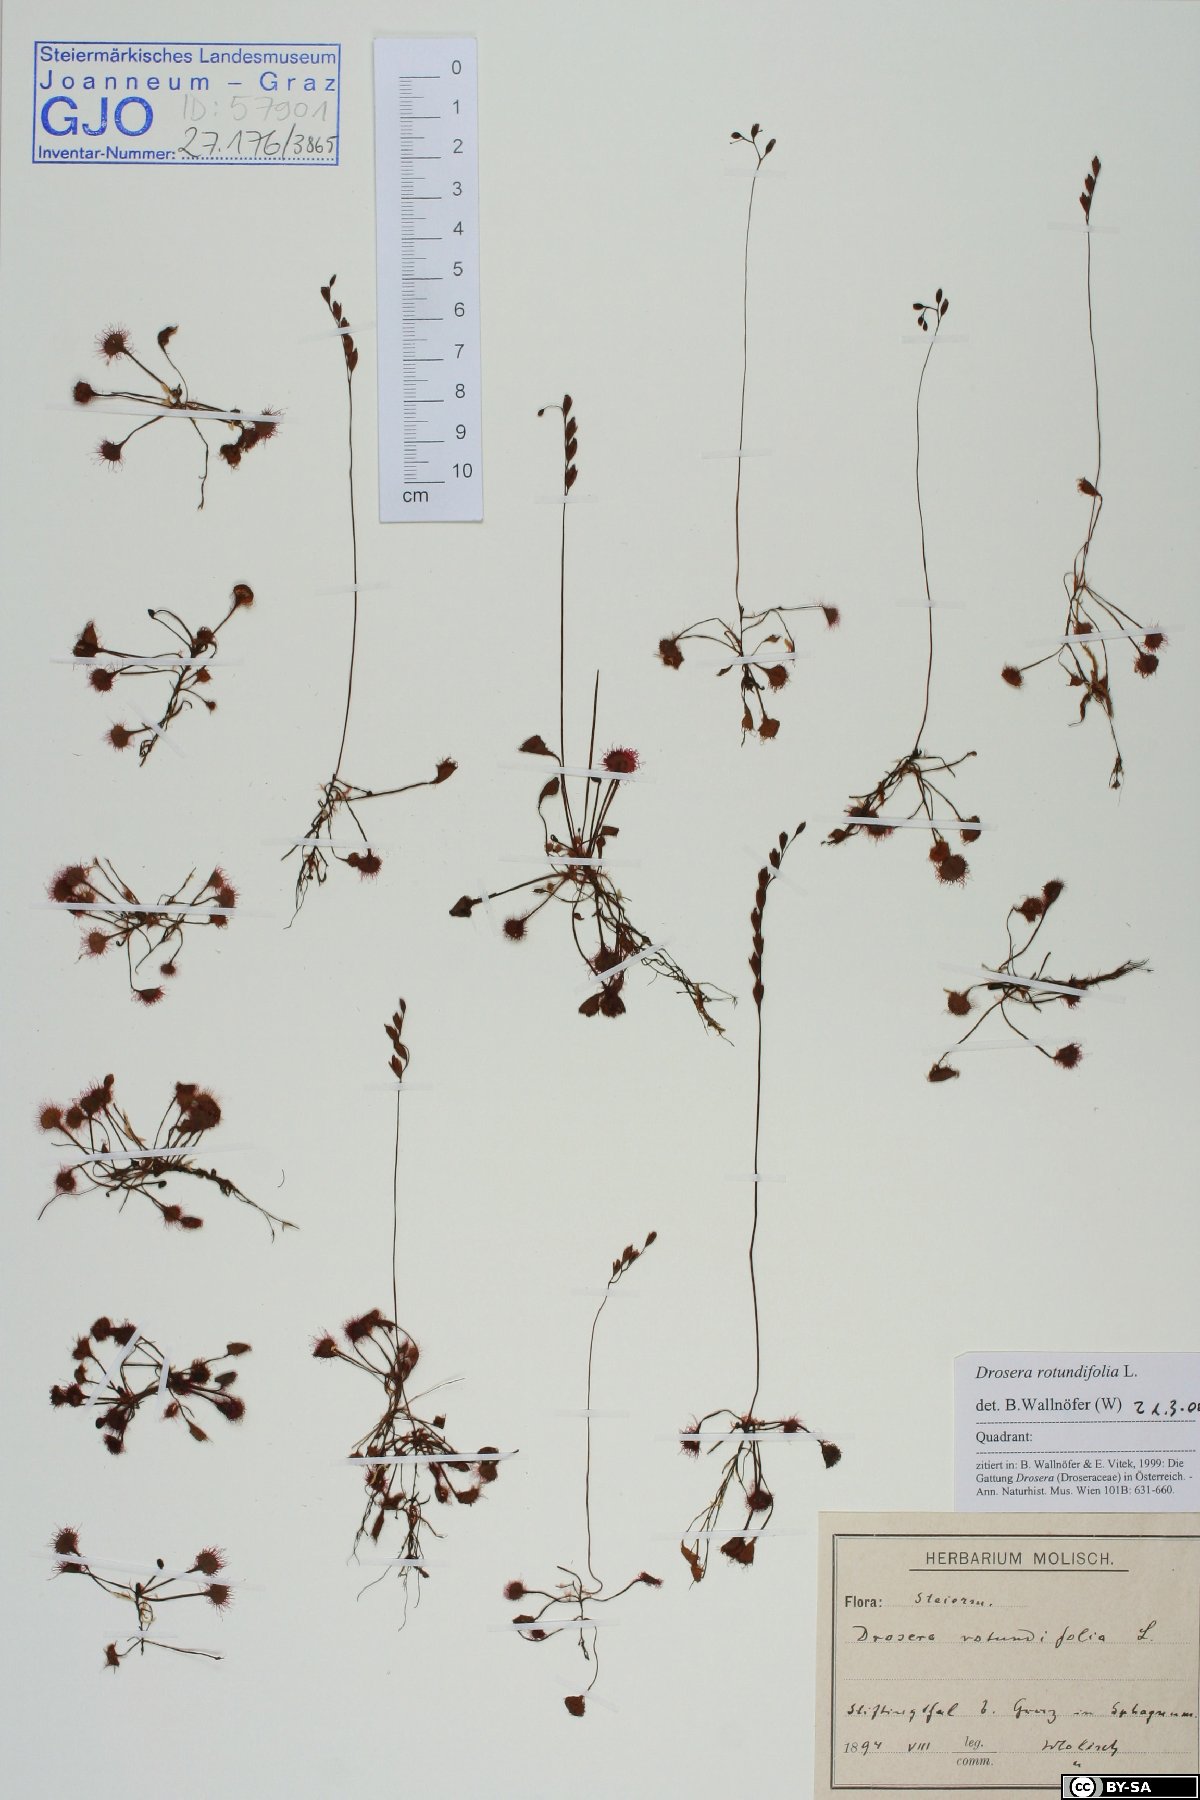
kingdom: Plantae
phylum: Tracheophyta
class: Magnoliopsida
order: Caryophyllales
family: Droseraceae
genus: Drosera
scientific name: Drosera rotundifolia
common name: Round-leaved sundew
